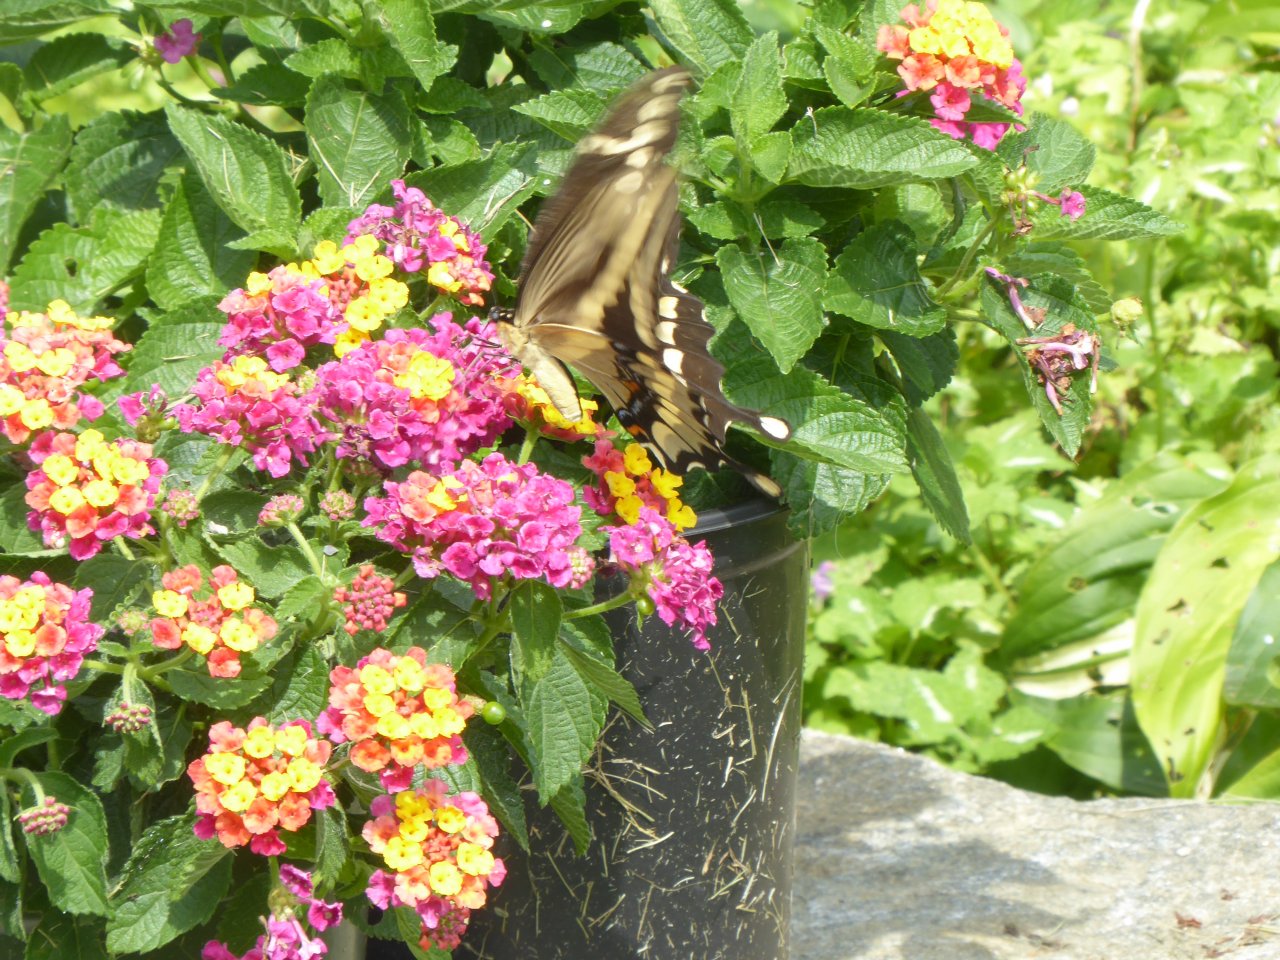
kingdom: Animalia
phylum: Arthropoda
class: Insecta
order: Lepidoptera
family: Papilionidae
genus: Papilio
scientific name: Papilio cresphontes
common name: Eastern Giant Swallowtail
